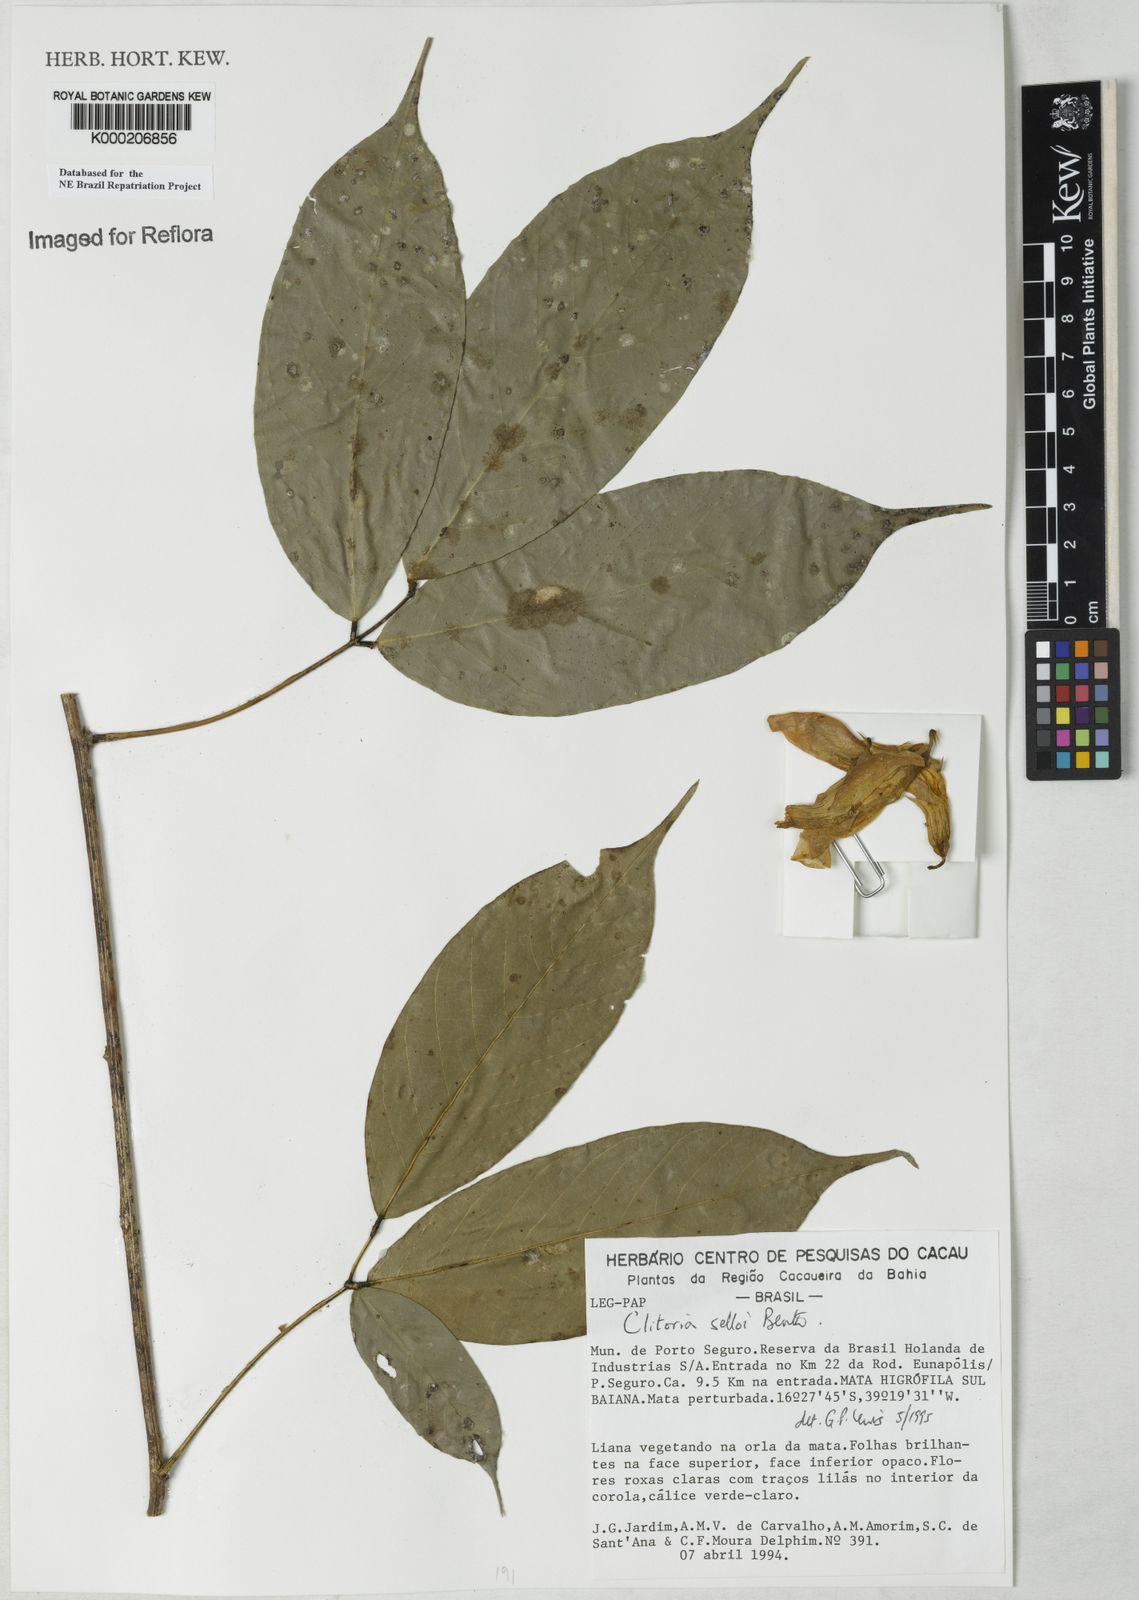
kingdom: Plantae
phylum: Tracheophyta
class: Magnoliopsida
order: Fabales
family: Fabaceae
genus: Clitoria
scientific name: Clitoria selloi
